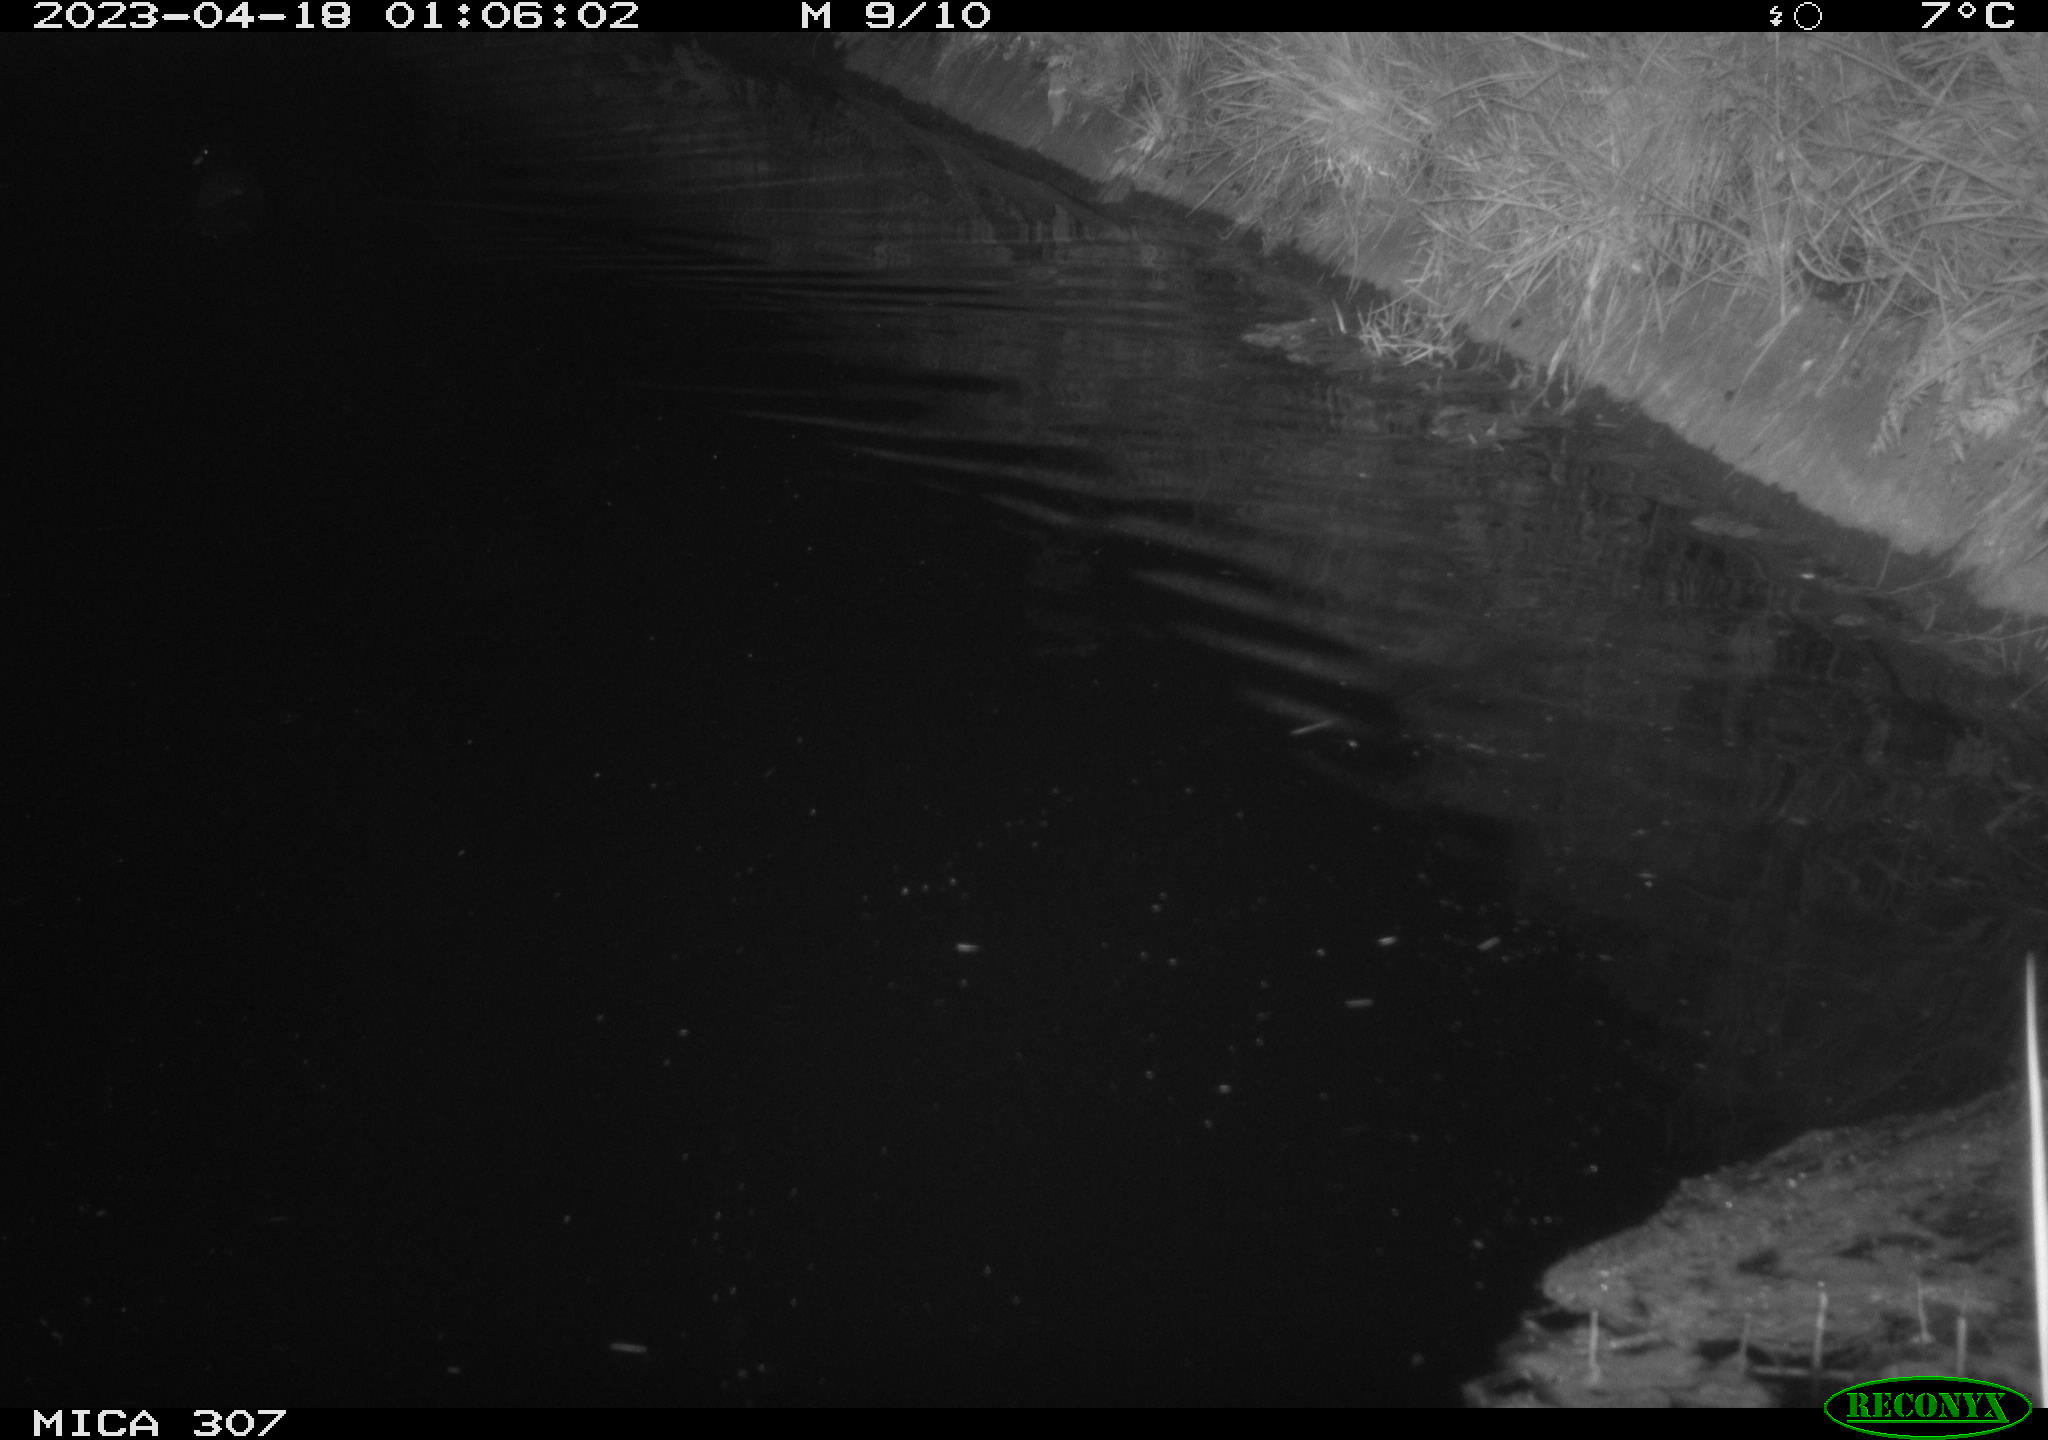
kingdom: Animalia
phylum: Chordata
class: Aves
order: Anseriformes
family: Anatidae
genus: Anas
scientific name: Anas
